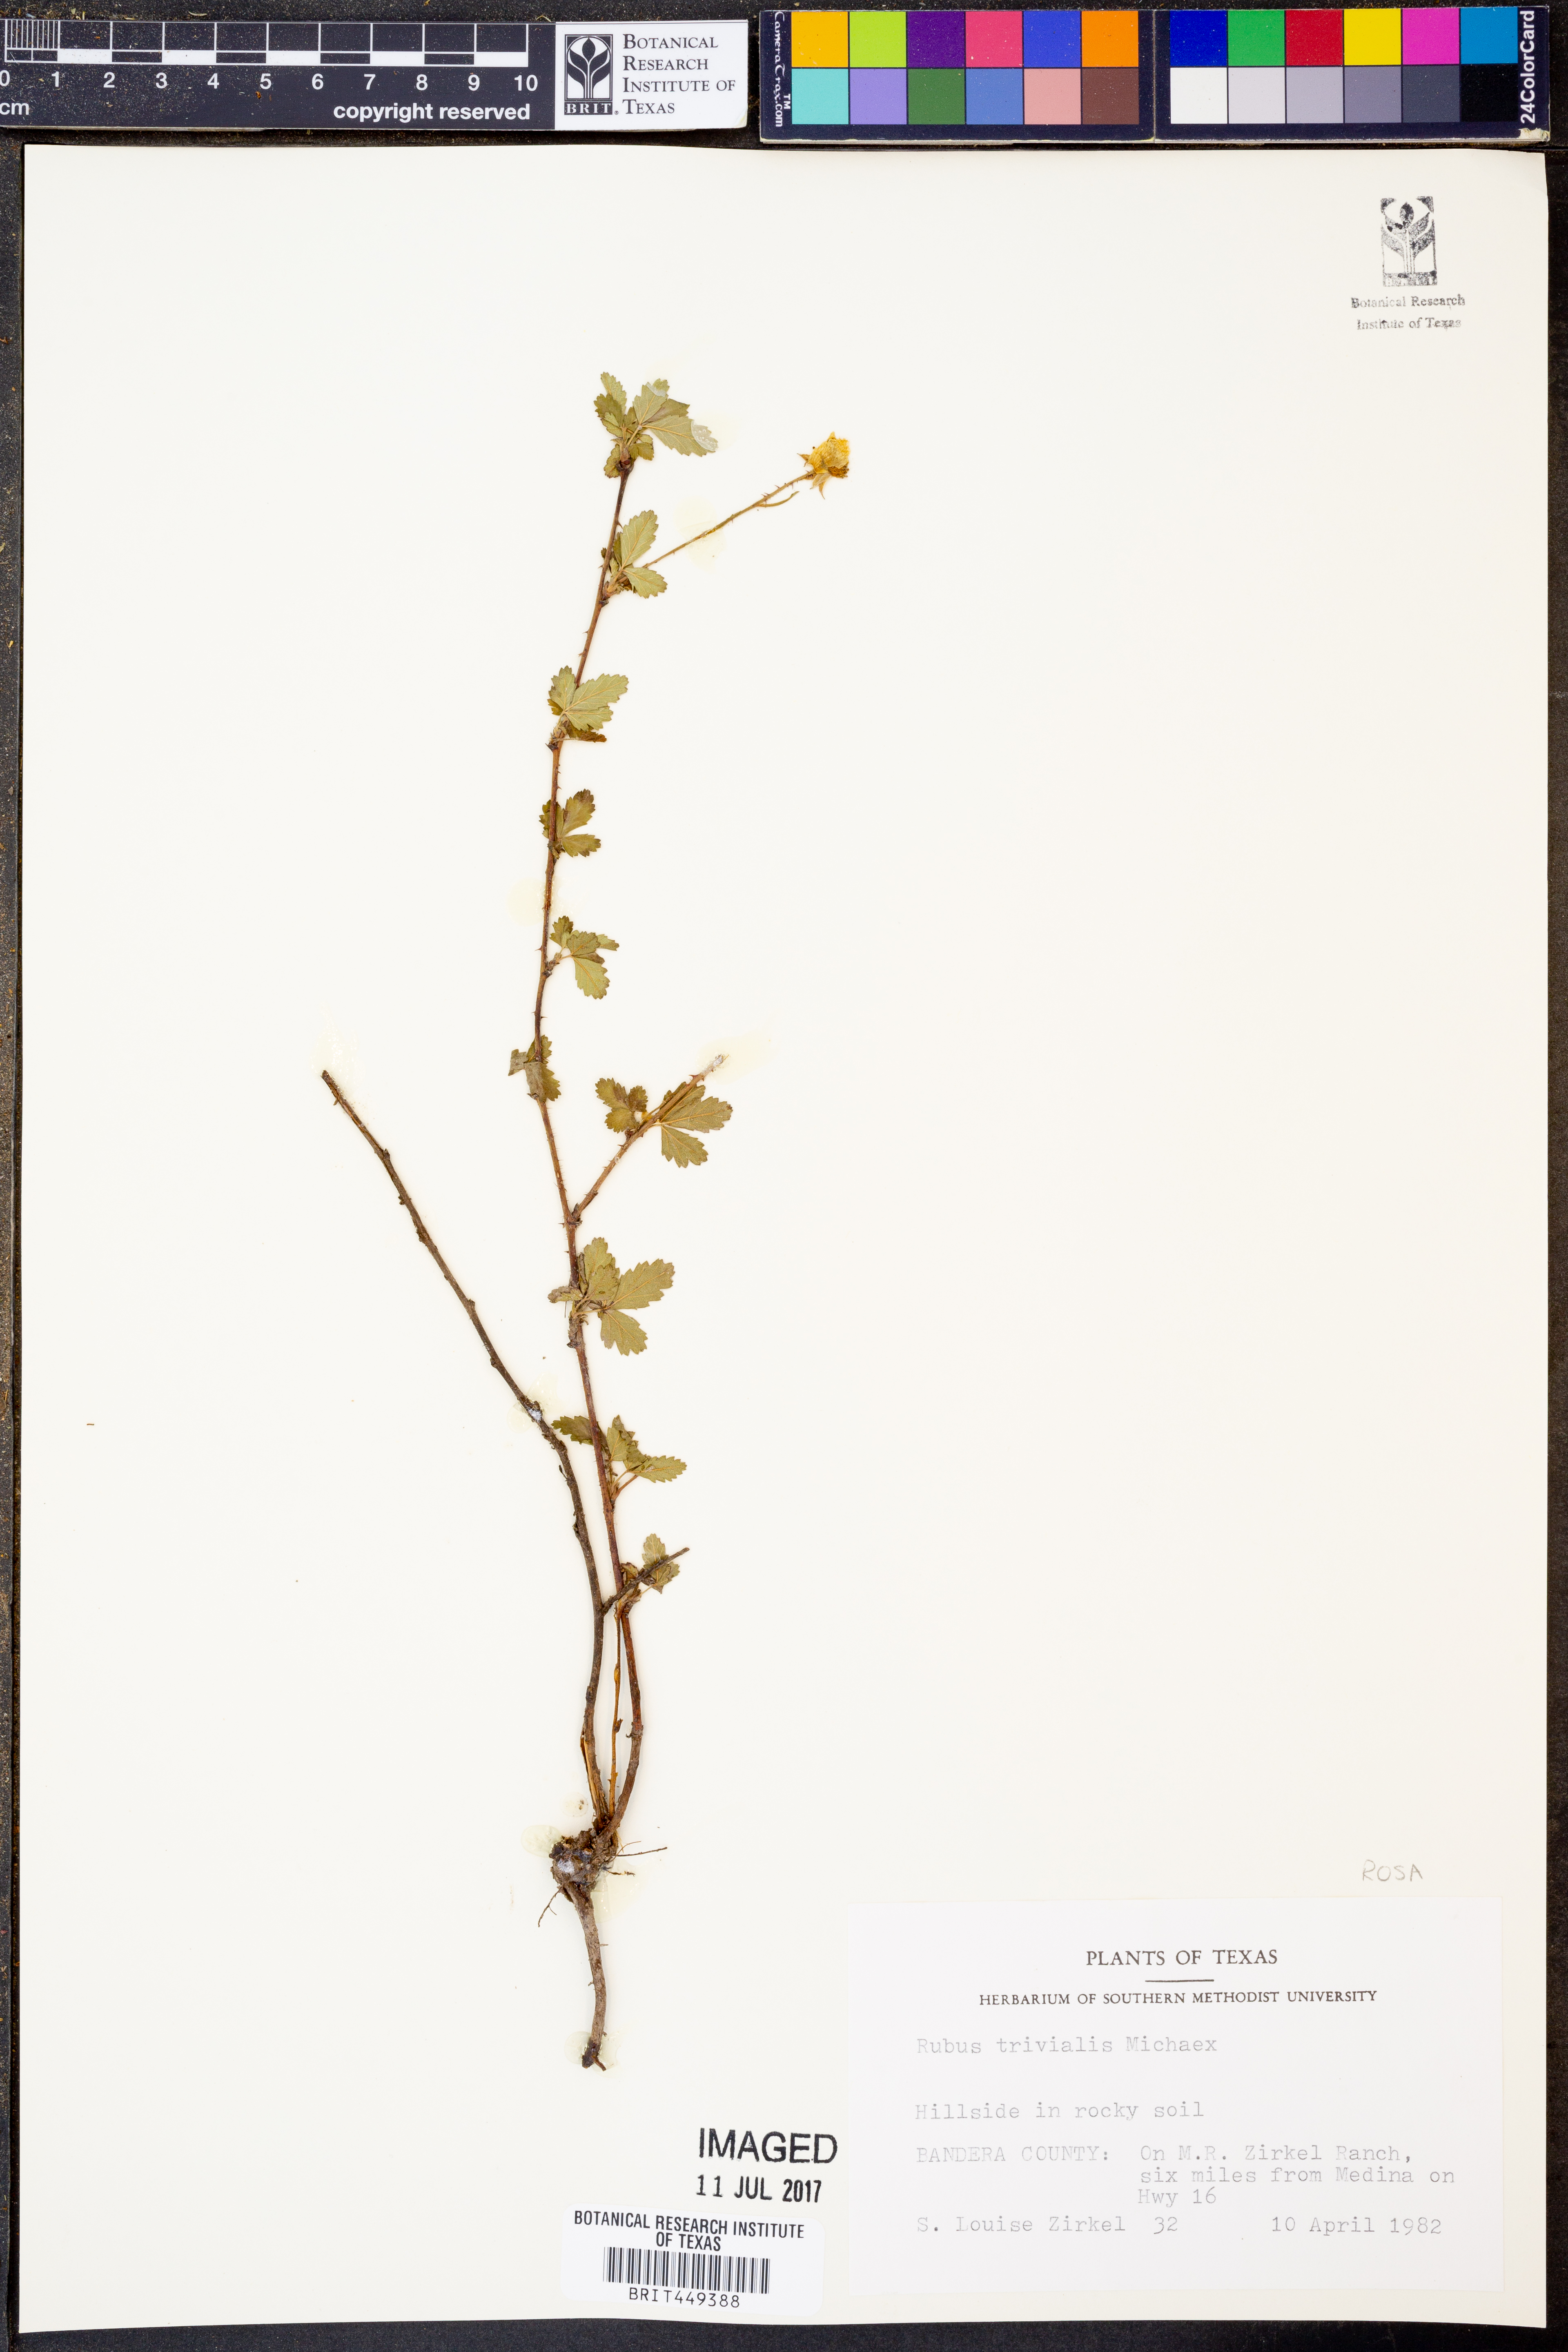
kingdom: Plantae
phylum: Tracheophyta
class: Magnoliopsida
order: Rosales
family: Rosaceae
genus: Rubus
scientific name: Rubus trivialis
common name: Southern dewberry
